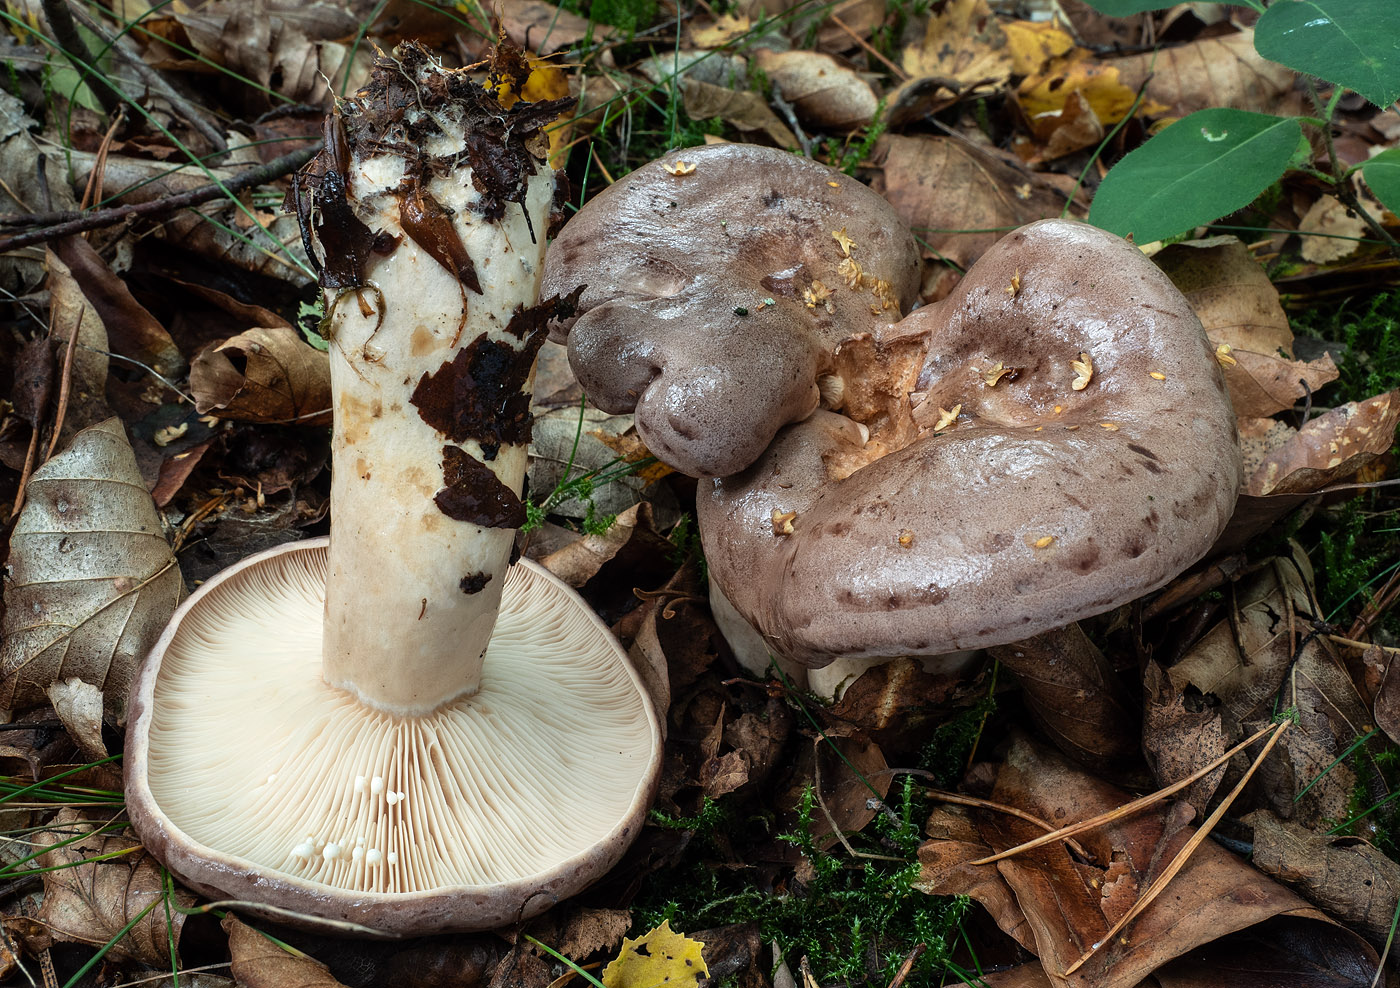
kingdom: Fungi
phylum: Basidiomycota
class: Agaricomycetes
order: Russulales
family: Russulaceae
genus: Lactarius
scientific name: Lactarius vietus
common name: violetgrå mælkehat
